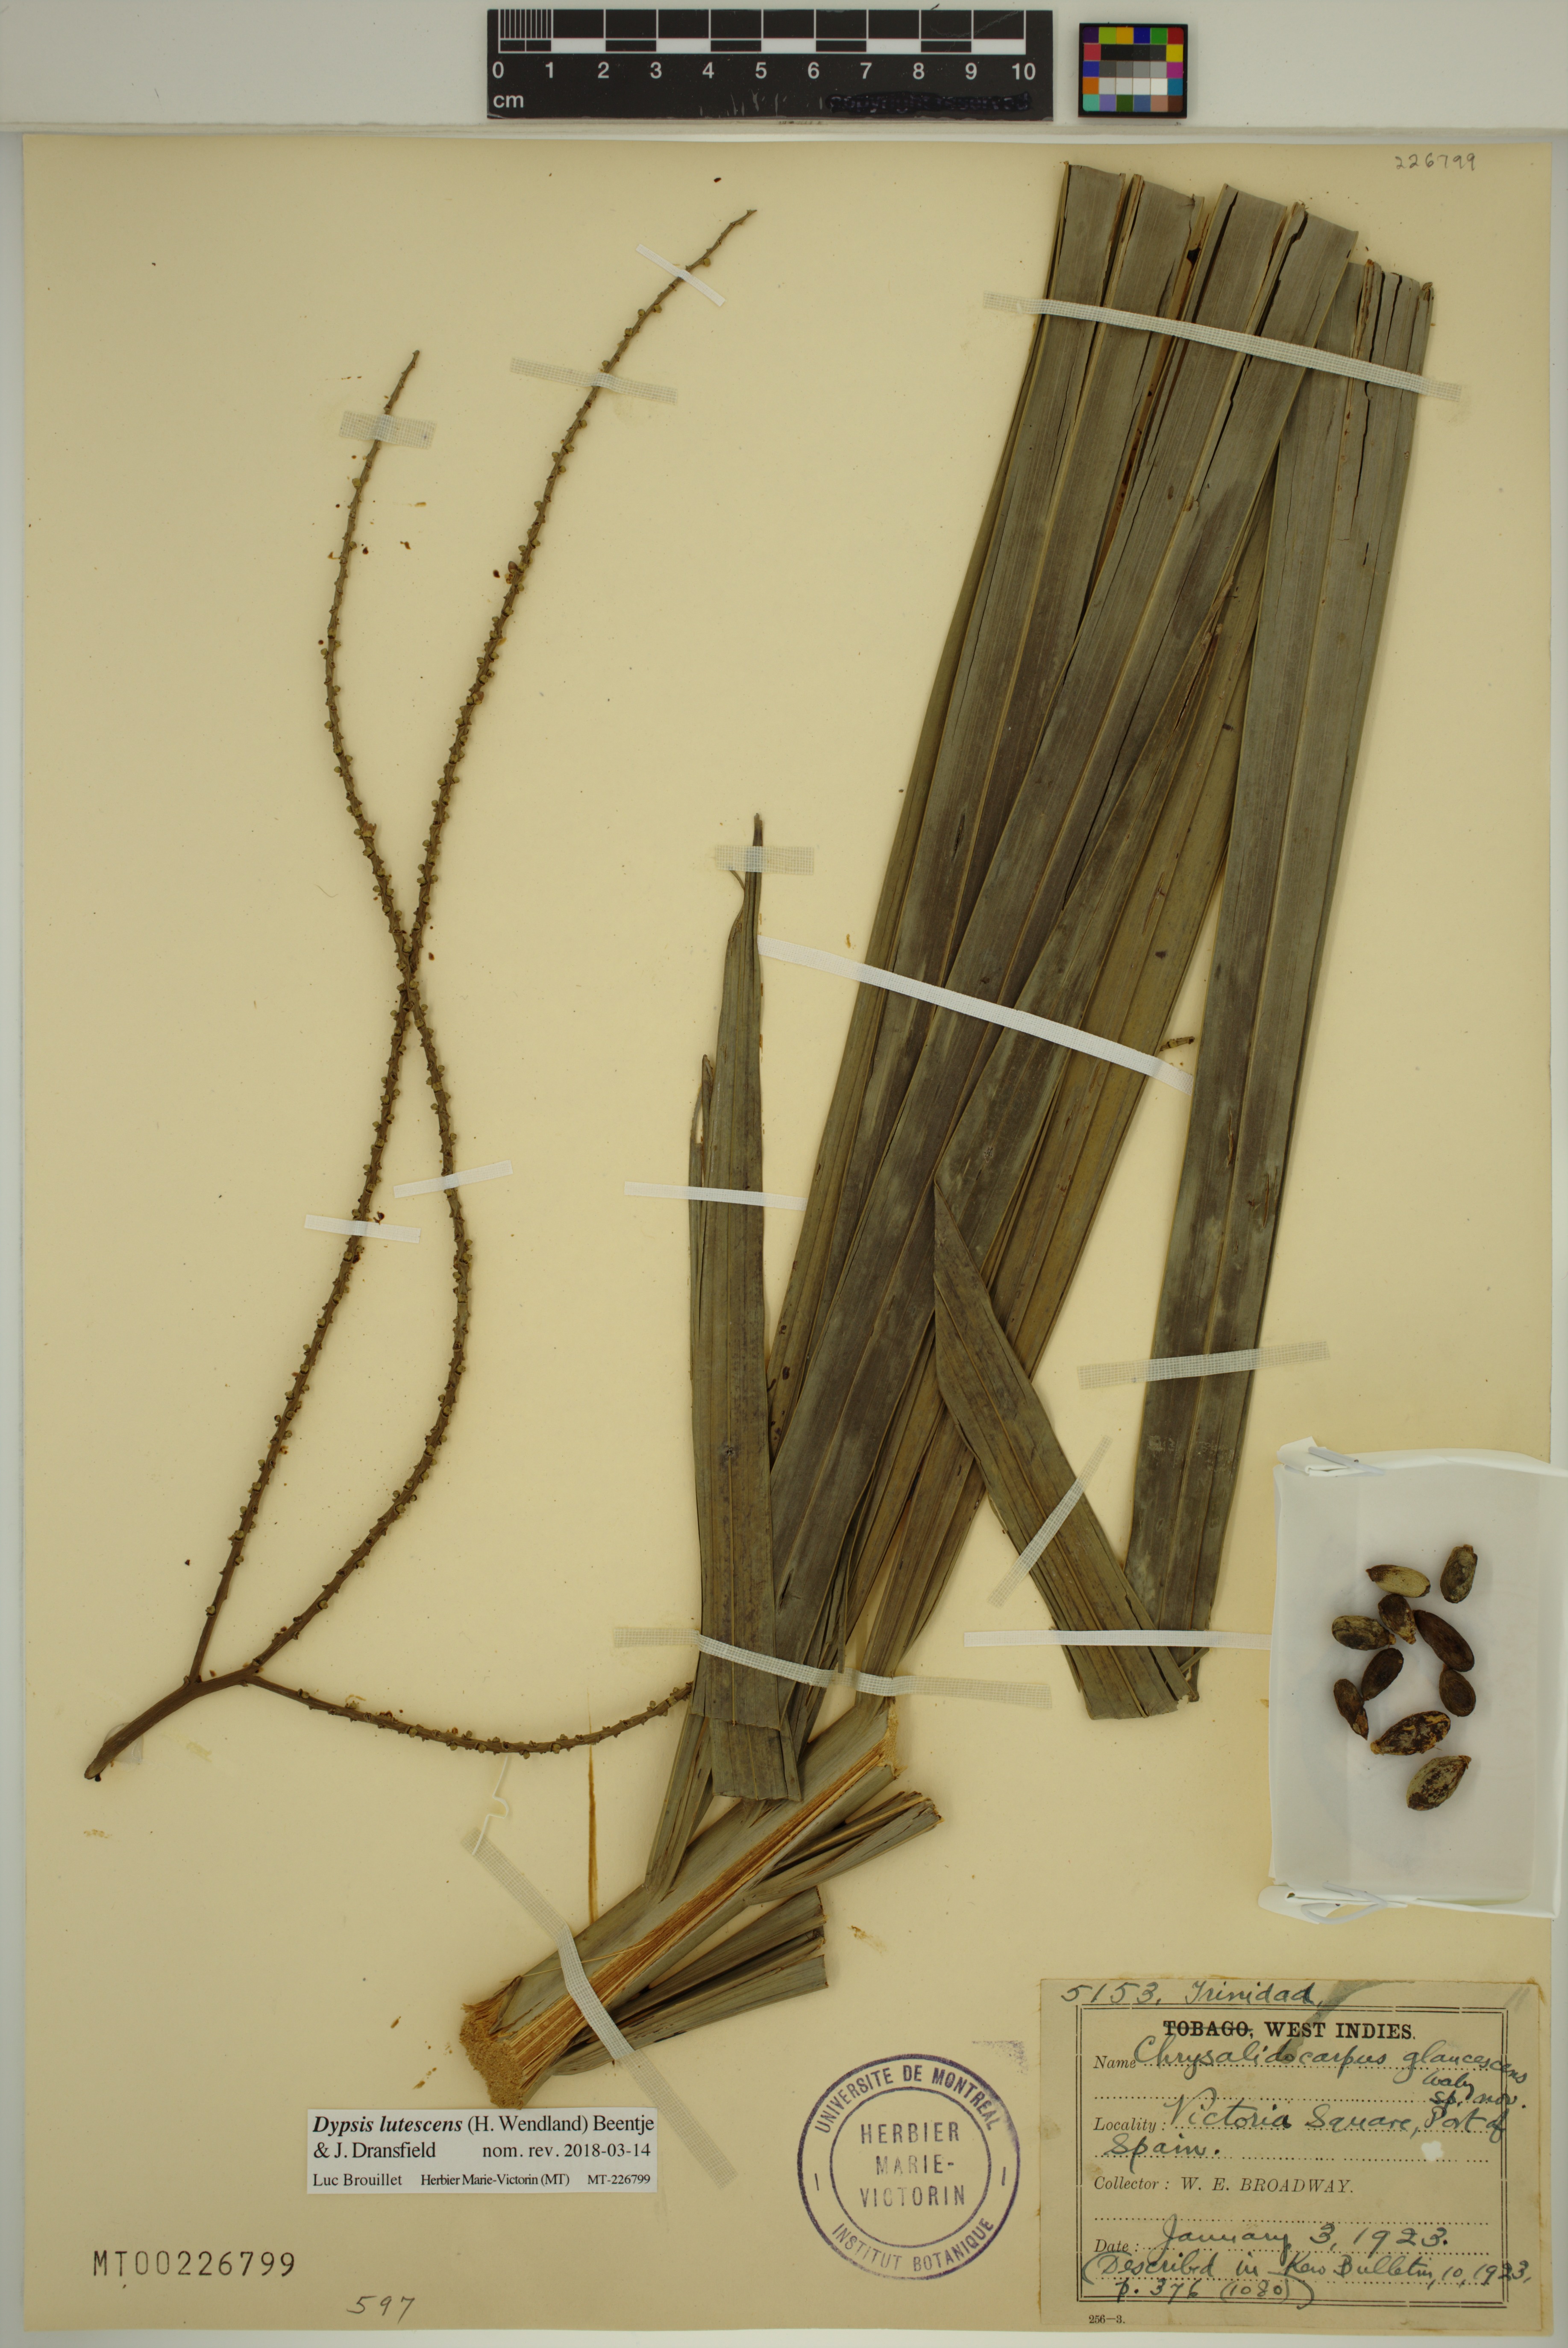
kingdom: Plantae
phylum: Tracheophyta
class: Liliopsida
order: Arecales
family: Arecaceae
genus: Dypsis
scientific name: Dypsis lutescens
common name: Yellow butterfly palm
